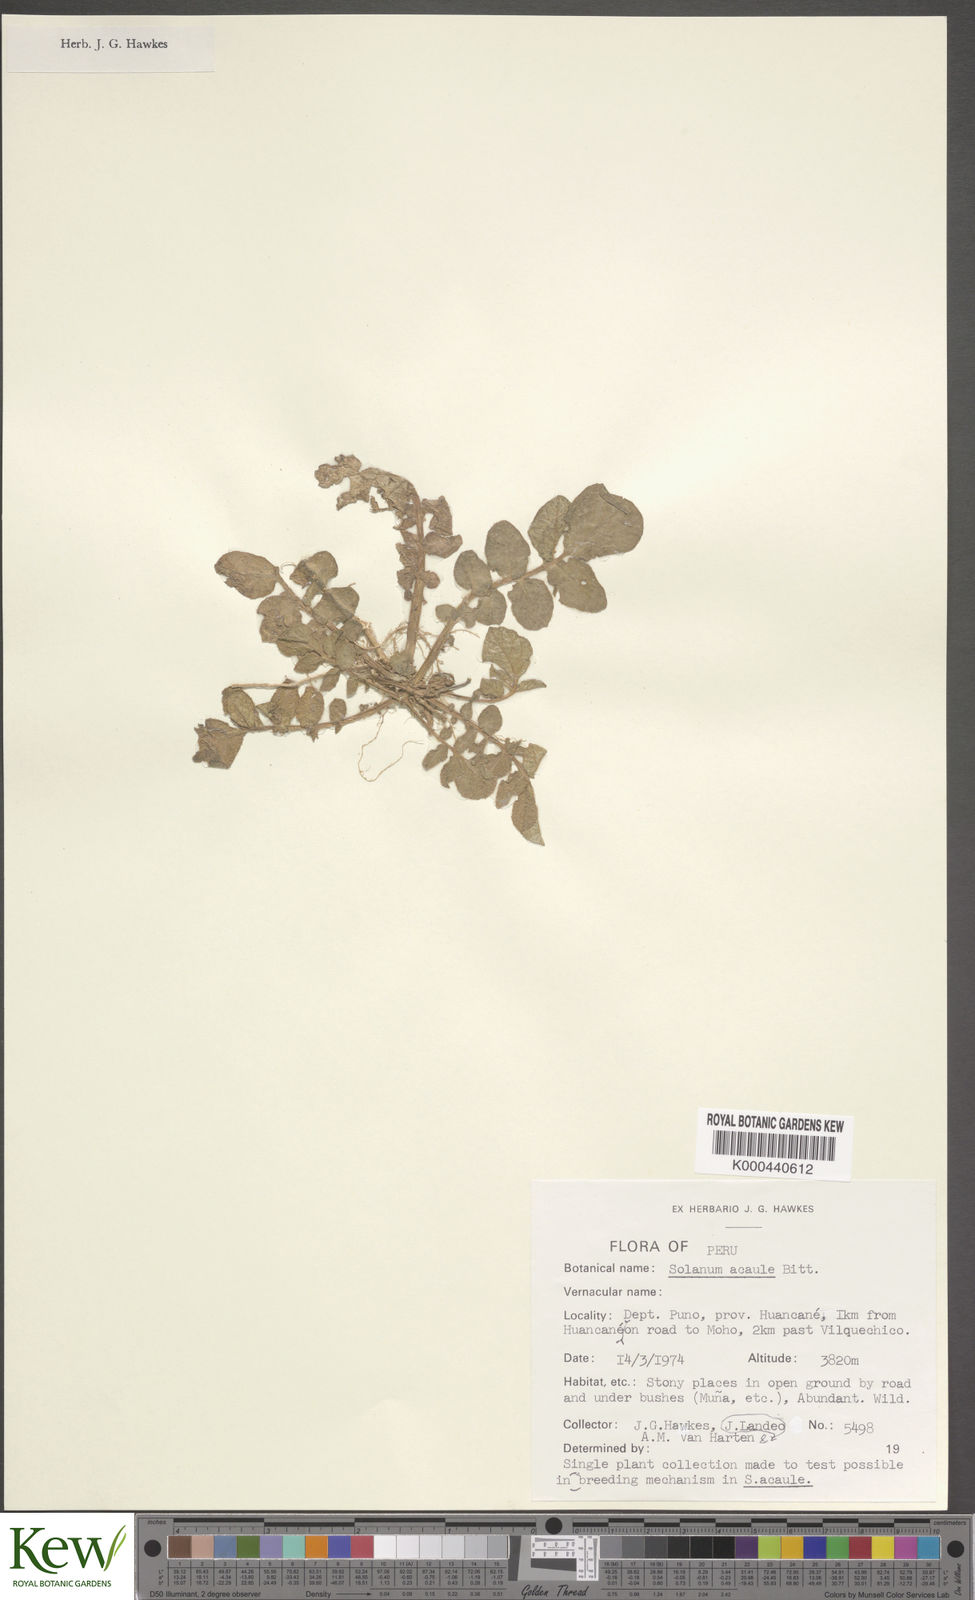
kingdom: Plantae
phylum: Tracheophyta
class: Magnoliopsida
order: Solanales
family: Solanaceae
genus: Solanum
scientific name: Solanum acaule
